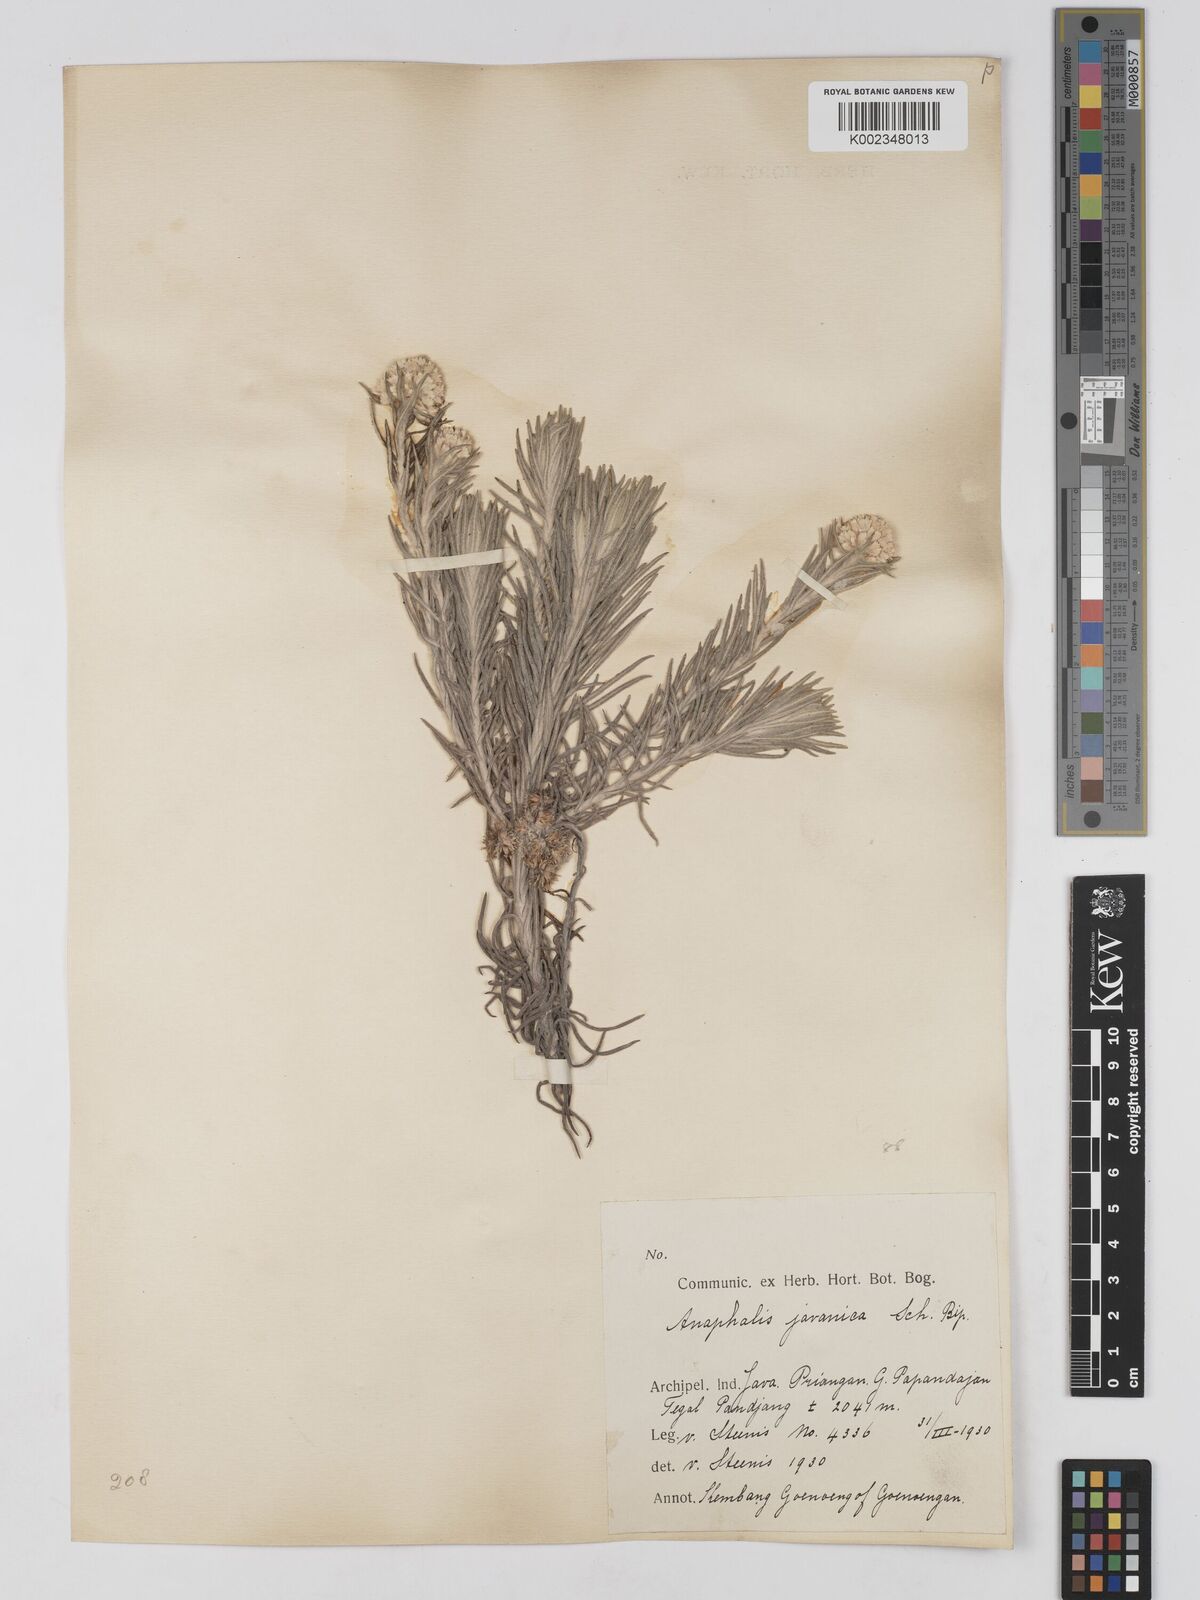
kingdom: Plantae
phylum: Tracheophyta
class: Magnoliopsida
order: Asterales
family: Asteraceae
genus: Anaphalis
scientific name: Anaphalis javanica
